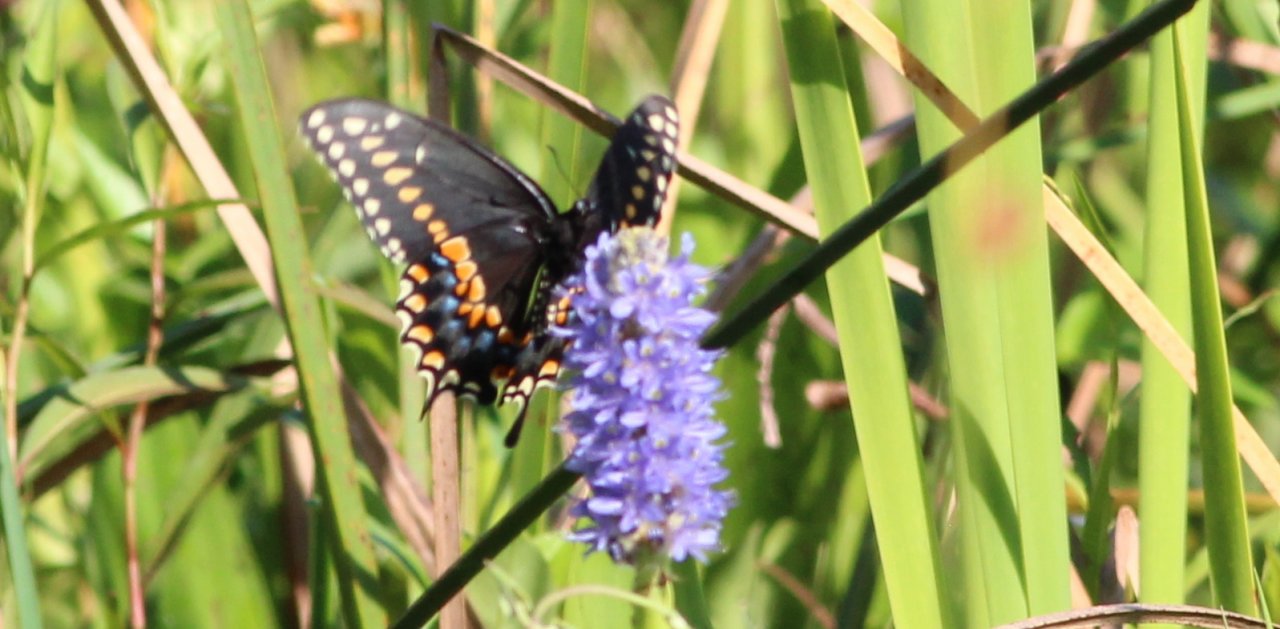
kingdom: Animalia
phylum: Arthropoda
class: Insecta
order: Lepidoptera
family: Papilionidae
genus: Papilio
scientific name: Papilio polyxenes
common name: Black Swallowtail
